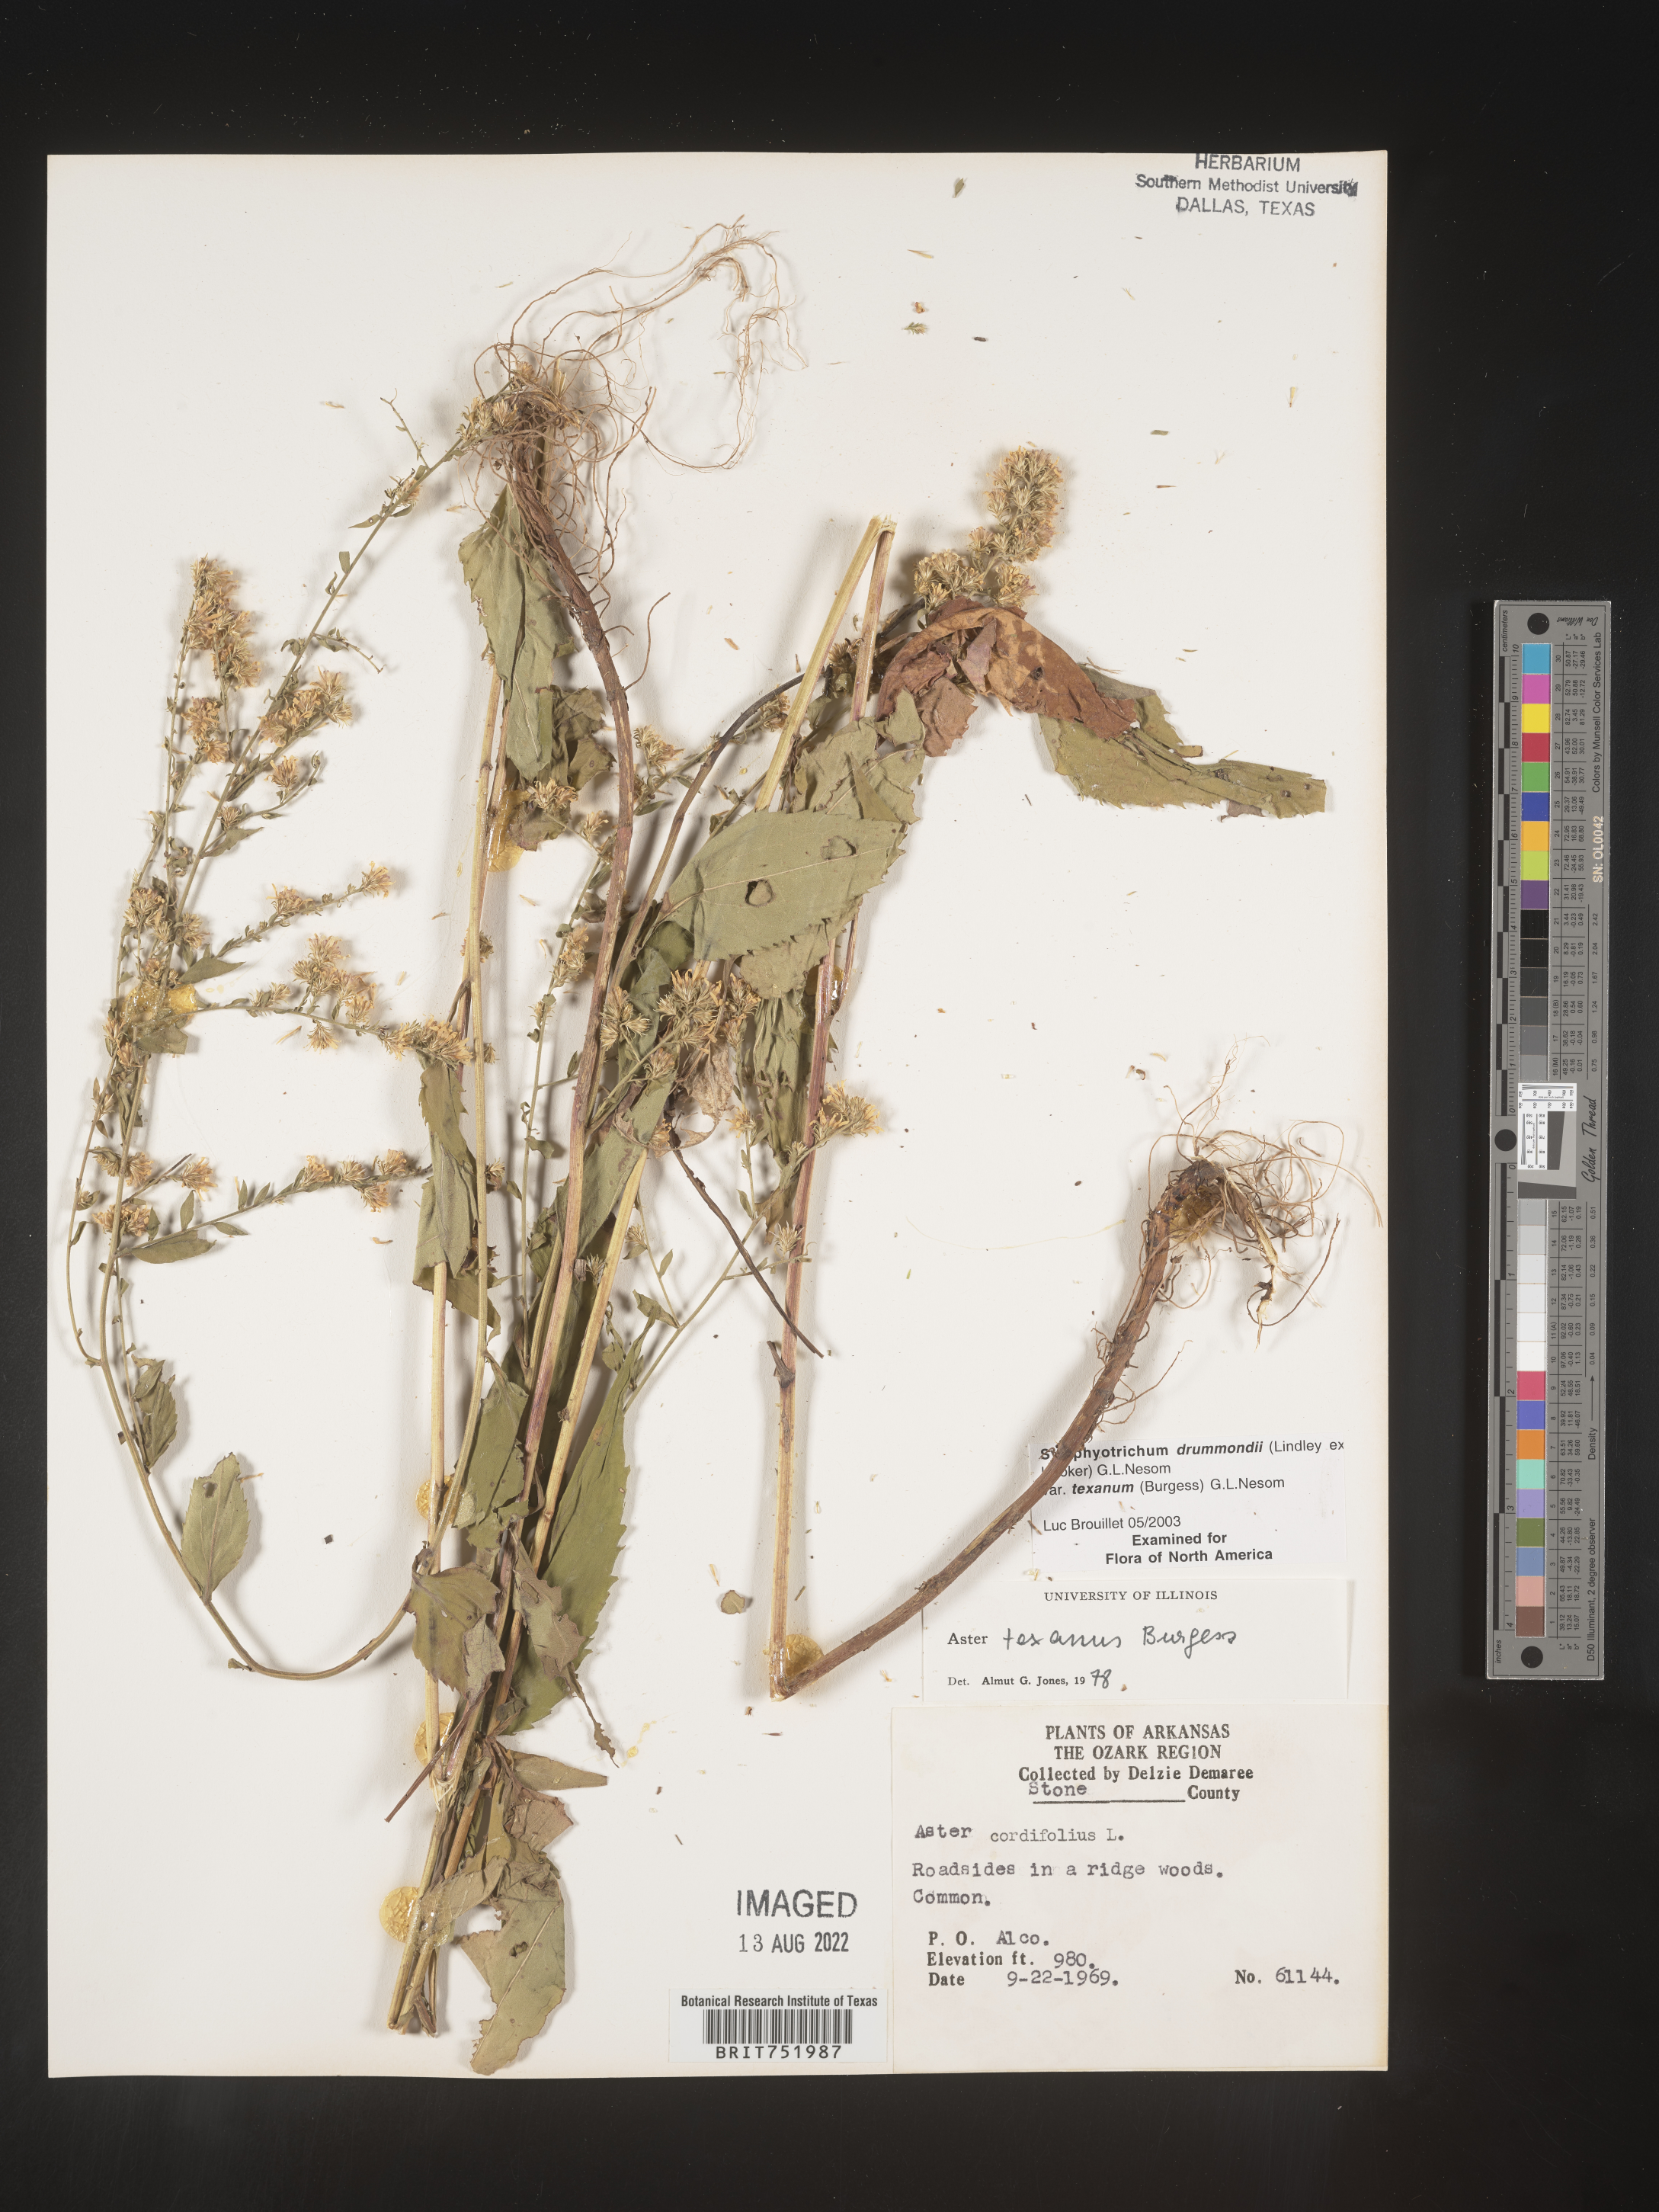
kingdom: Plantae
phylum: Tracheophyta
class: Magnoliopsida
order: Asterales
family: Asteraceae
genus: Symphyotrichum
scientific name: Symphyotrichum drummondii
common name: Drummond's aster
